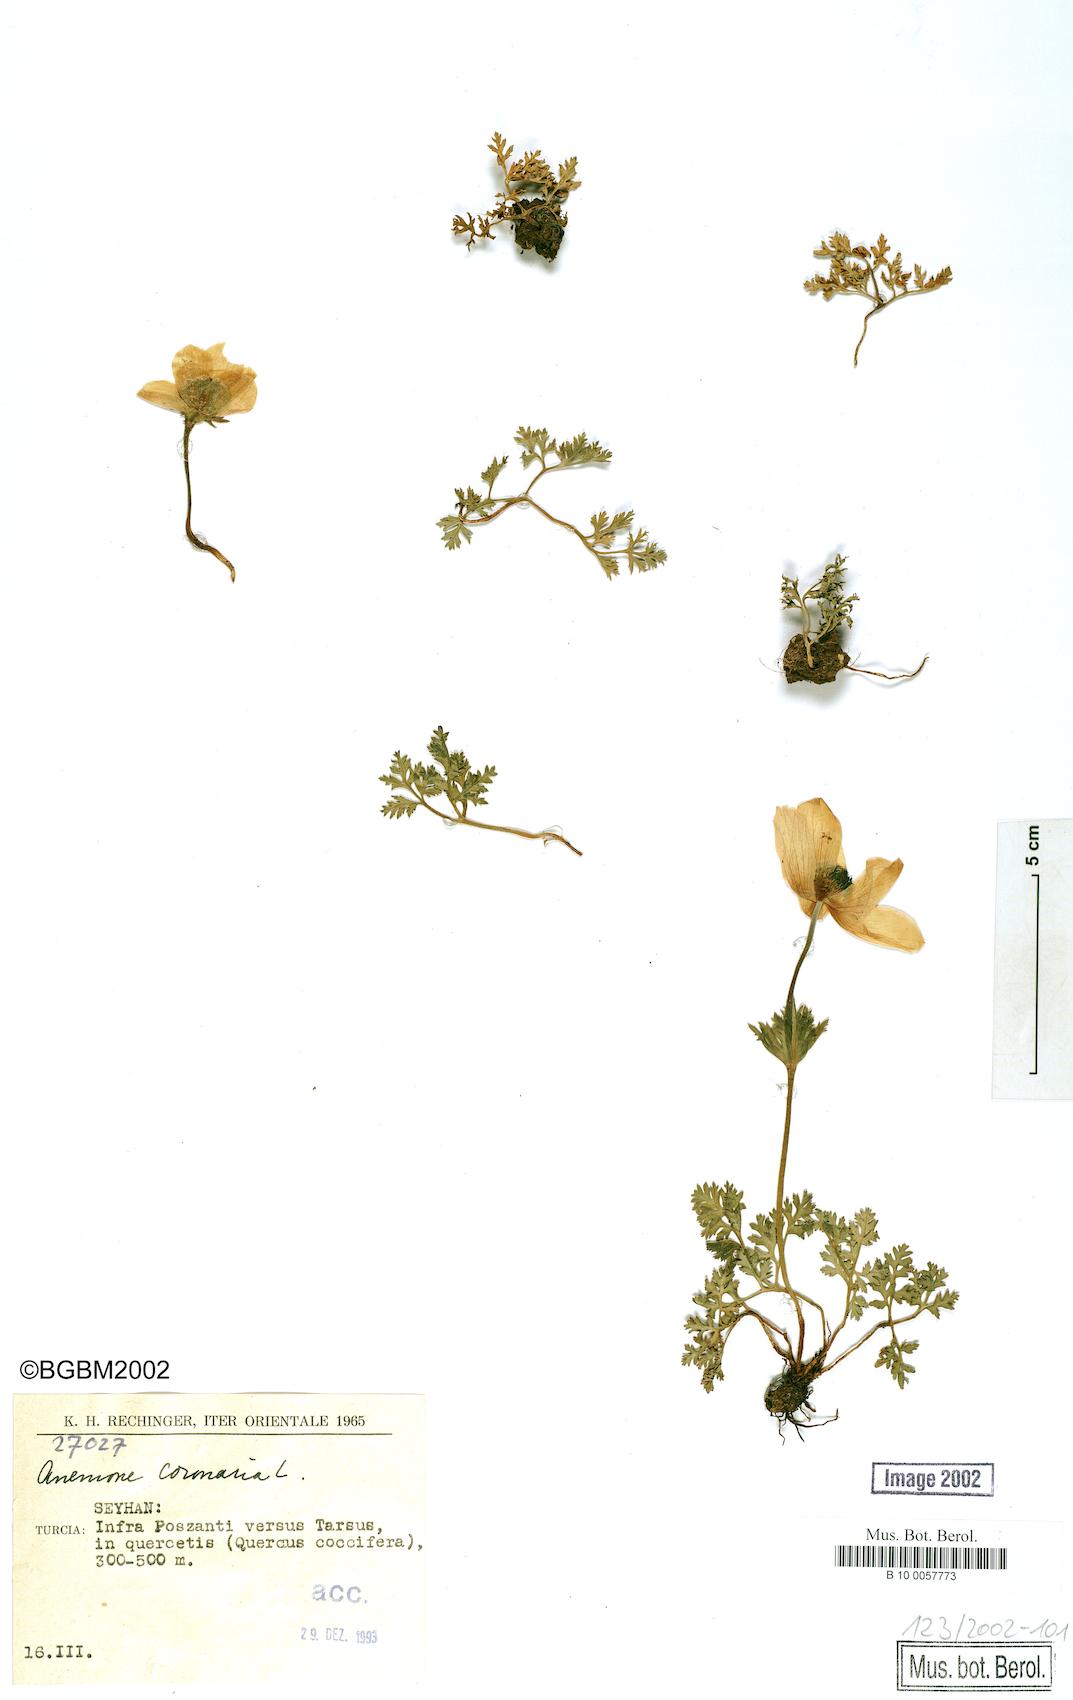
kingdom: Plantae
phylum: Tracheophyta
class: Magnoliopsida
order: Ranunculales
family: Ranunculaceae
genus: Anemone
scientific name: Anemone coronaria
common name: Poppy anemone
